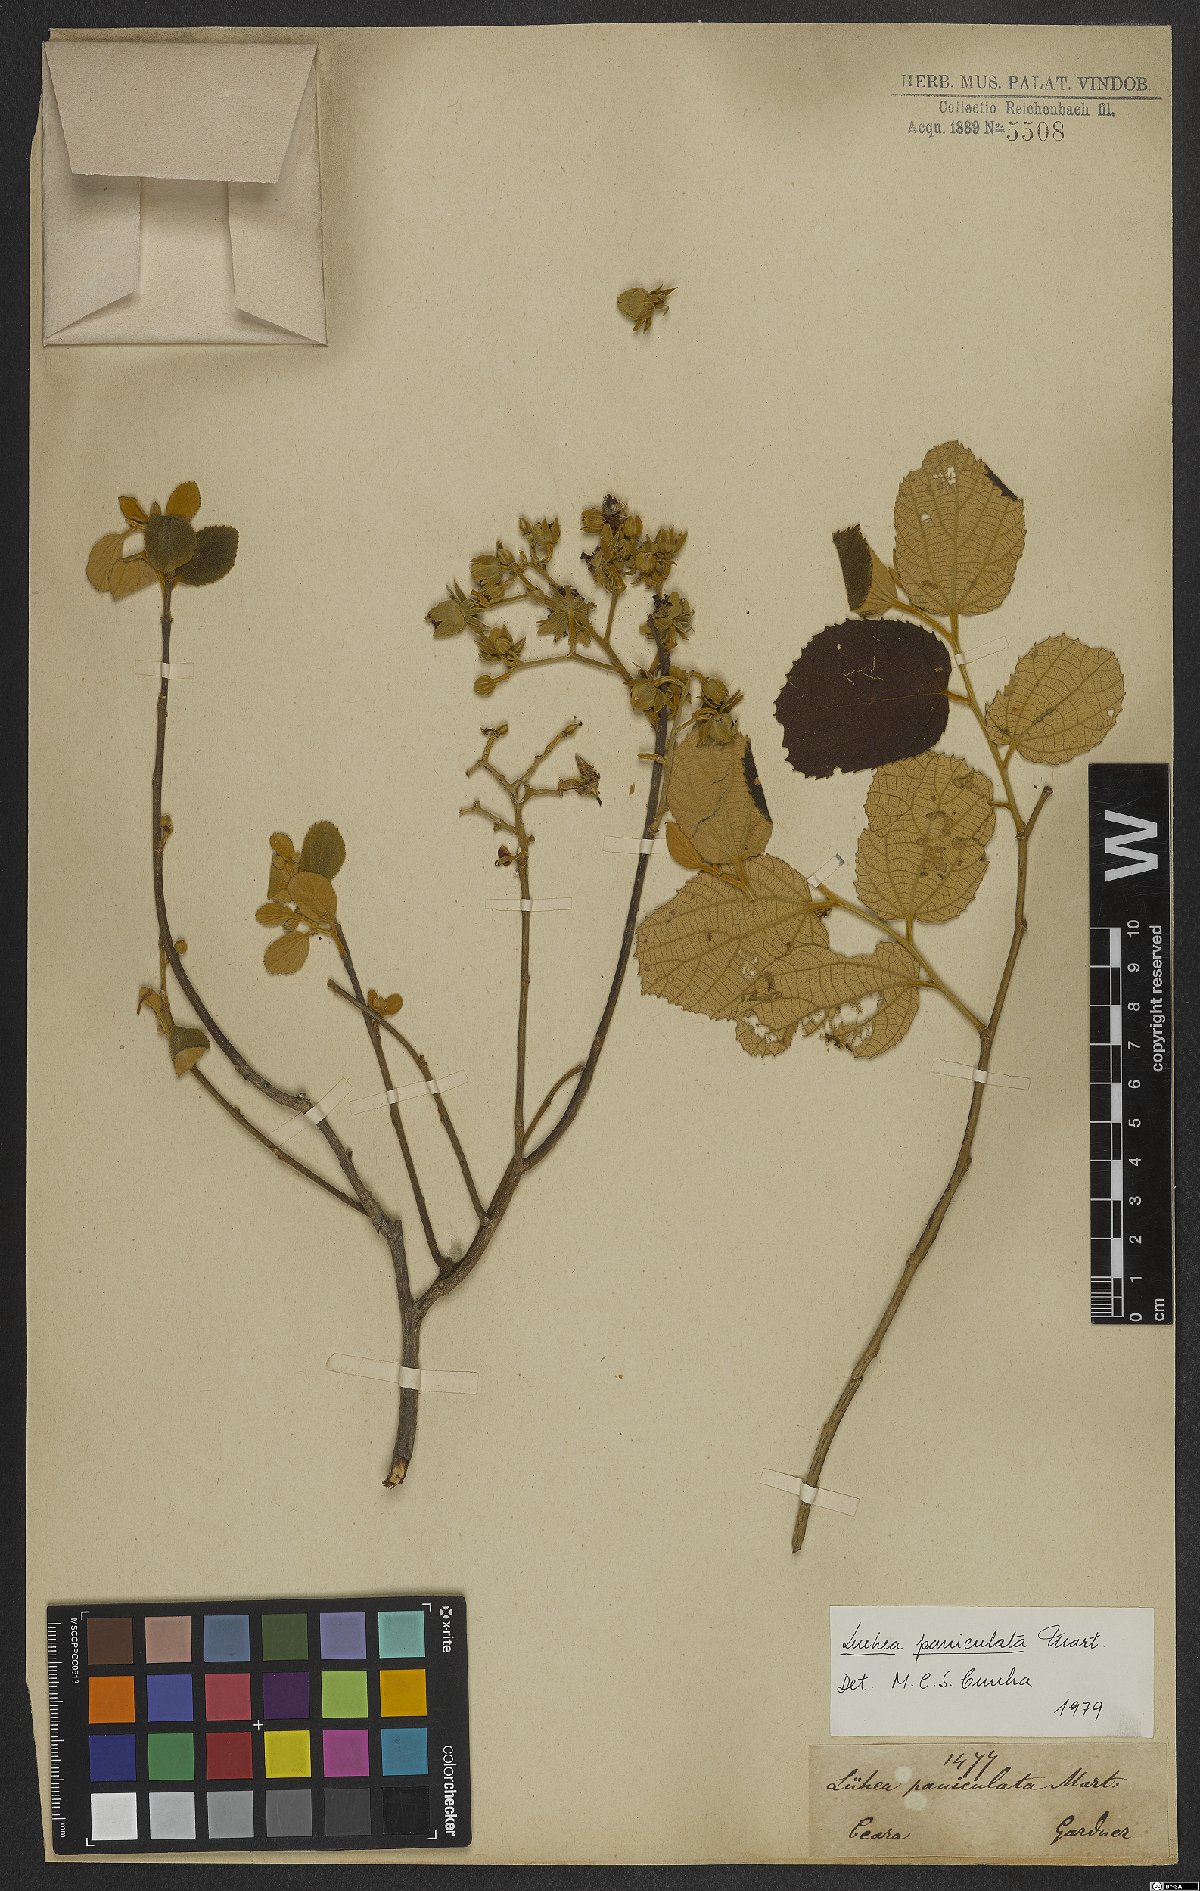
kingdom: Plantae
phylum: Tracheophyta
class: Magnoliopsida
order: Malvales
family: Malvaceae
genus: Luehea
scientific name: Luehea paniculata
